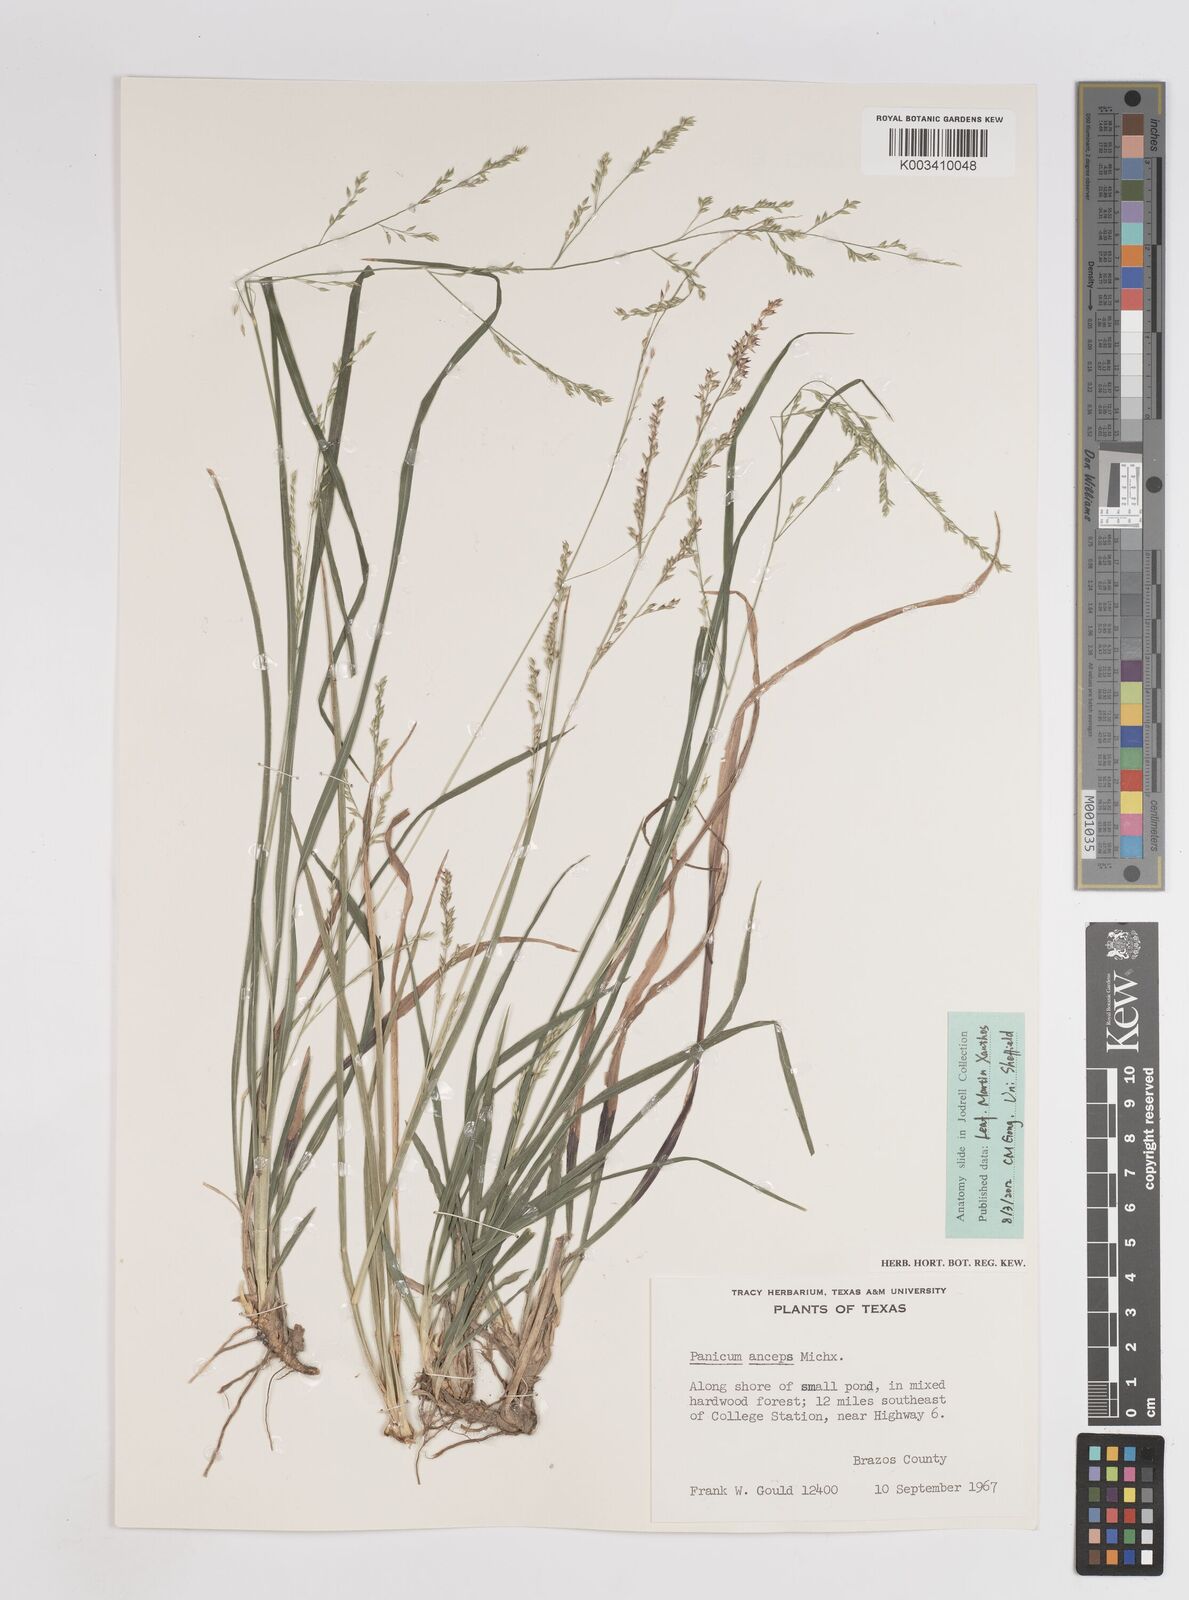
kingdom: Plantae
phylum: Tracheophyta
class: Liliopsida
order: Poales
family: Poaceae
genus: Coleataenia
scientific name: Coleataenia anceps
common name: Beaked panic grass
